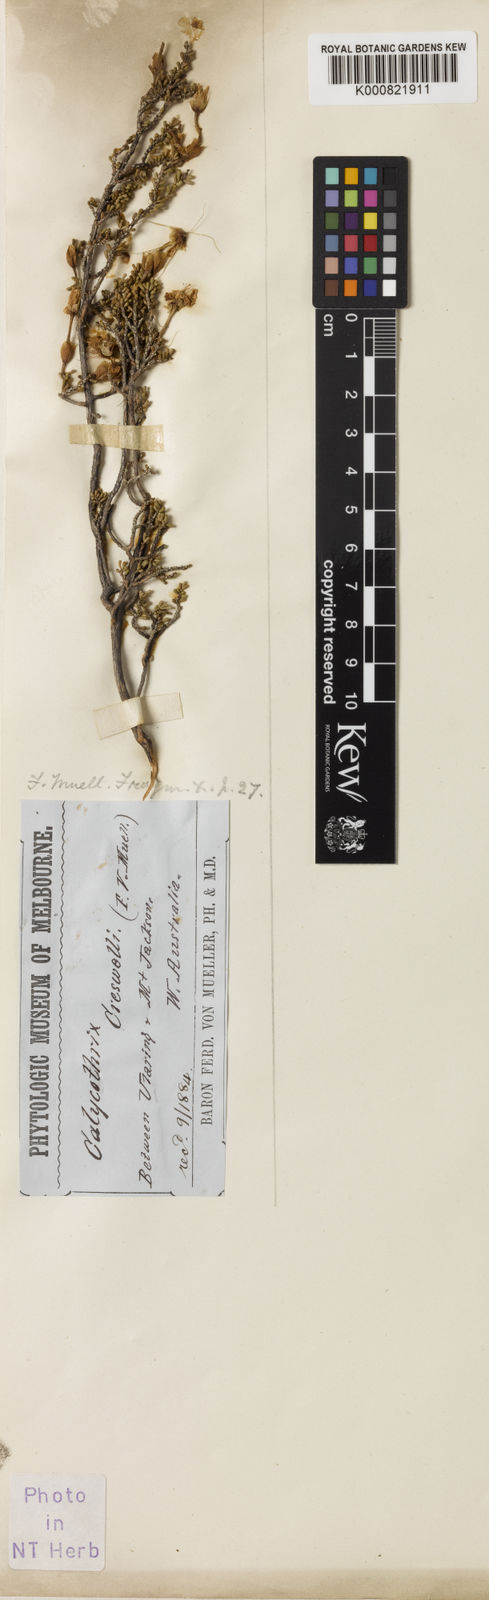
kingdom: Plantae
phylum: Tracheophyta
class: Magnoliopsida
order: Myrtales
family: Myrtaceae
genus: Calytrix
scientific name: Calytrix creswellii
